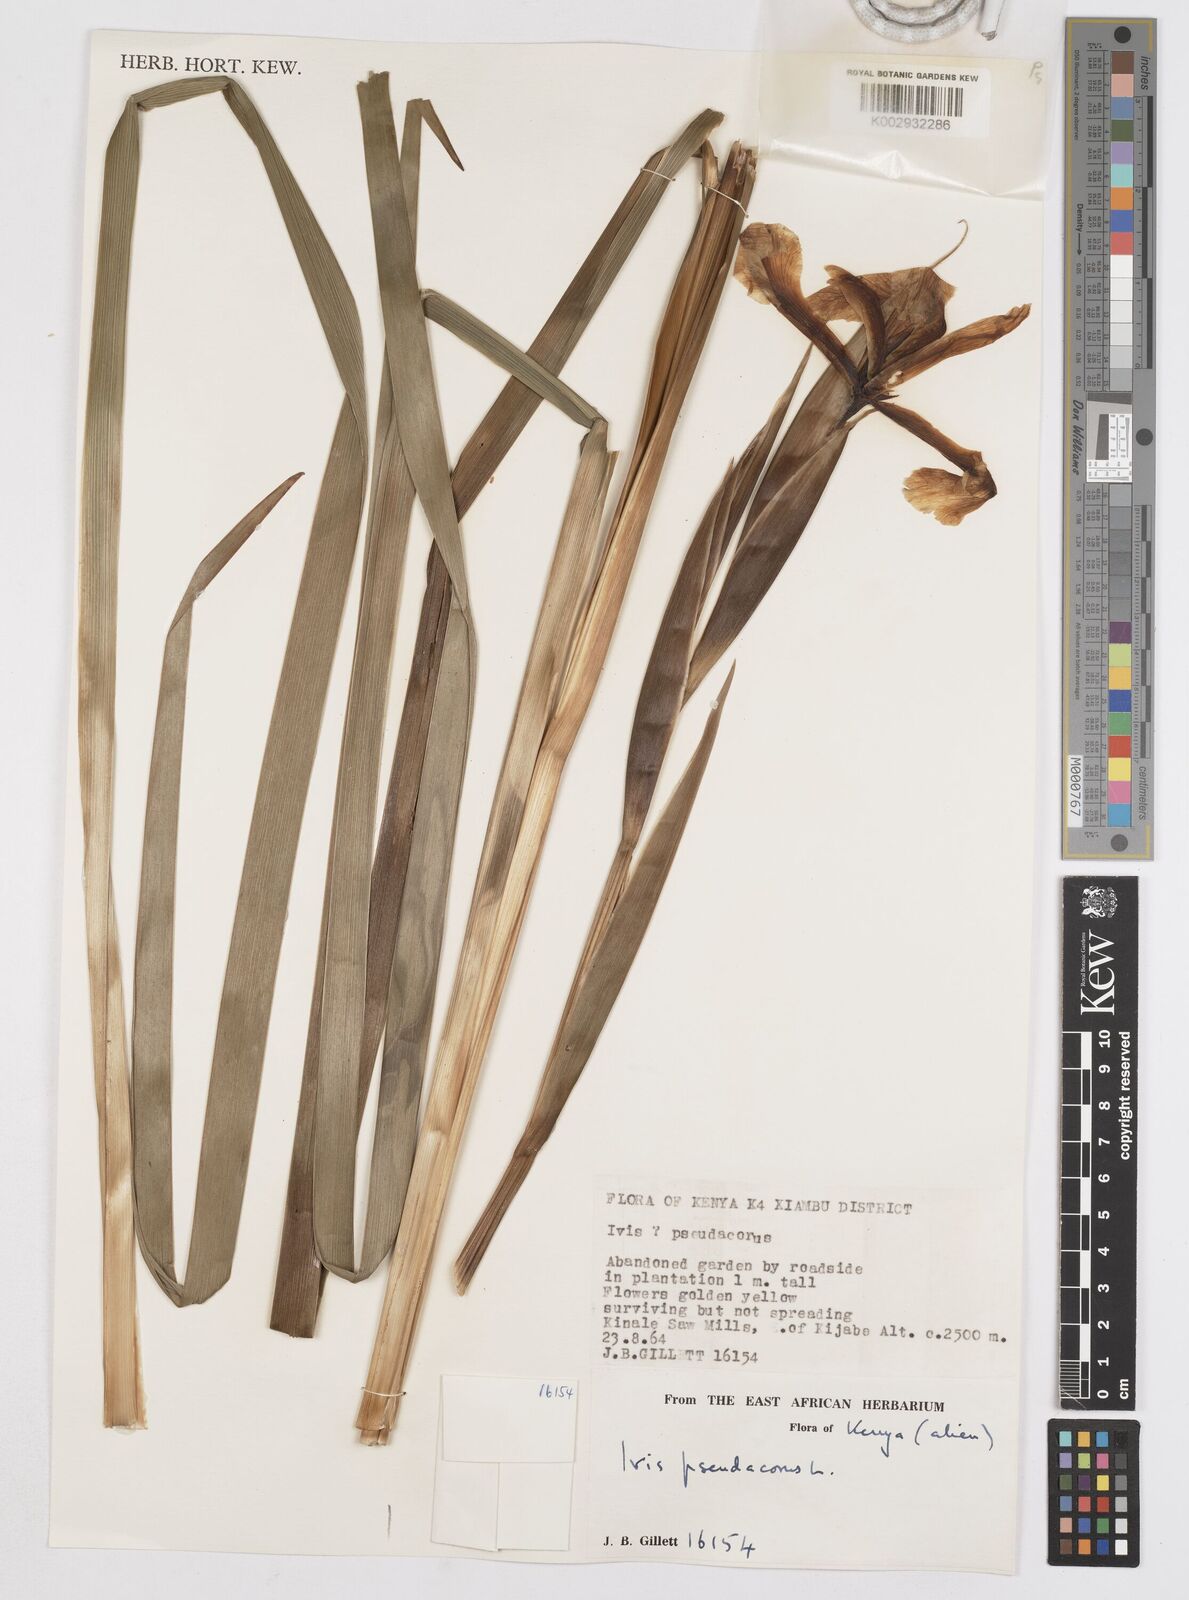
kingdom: Plantae
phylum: Tracheophyta
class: Liliopsida
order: Asparagales
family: Iridaceae
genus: Iris
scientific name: Iris pseudacorus
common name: Yellow flag
